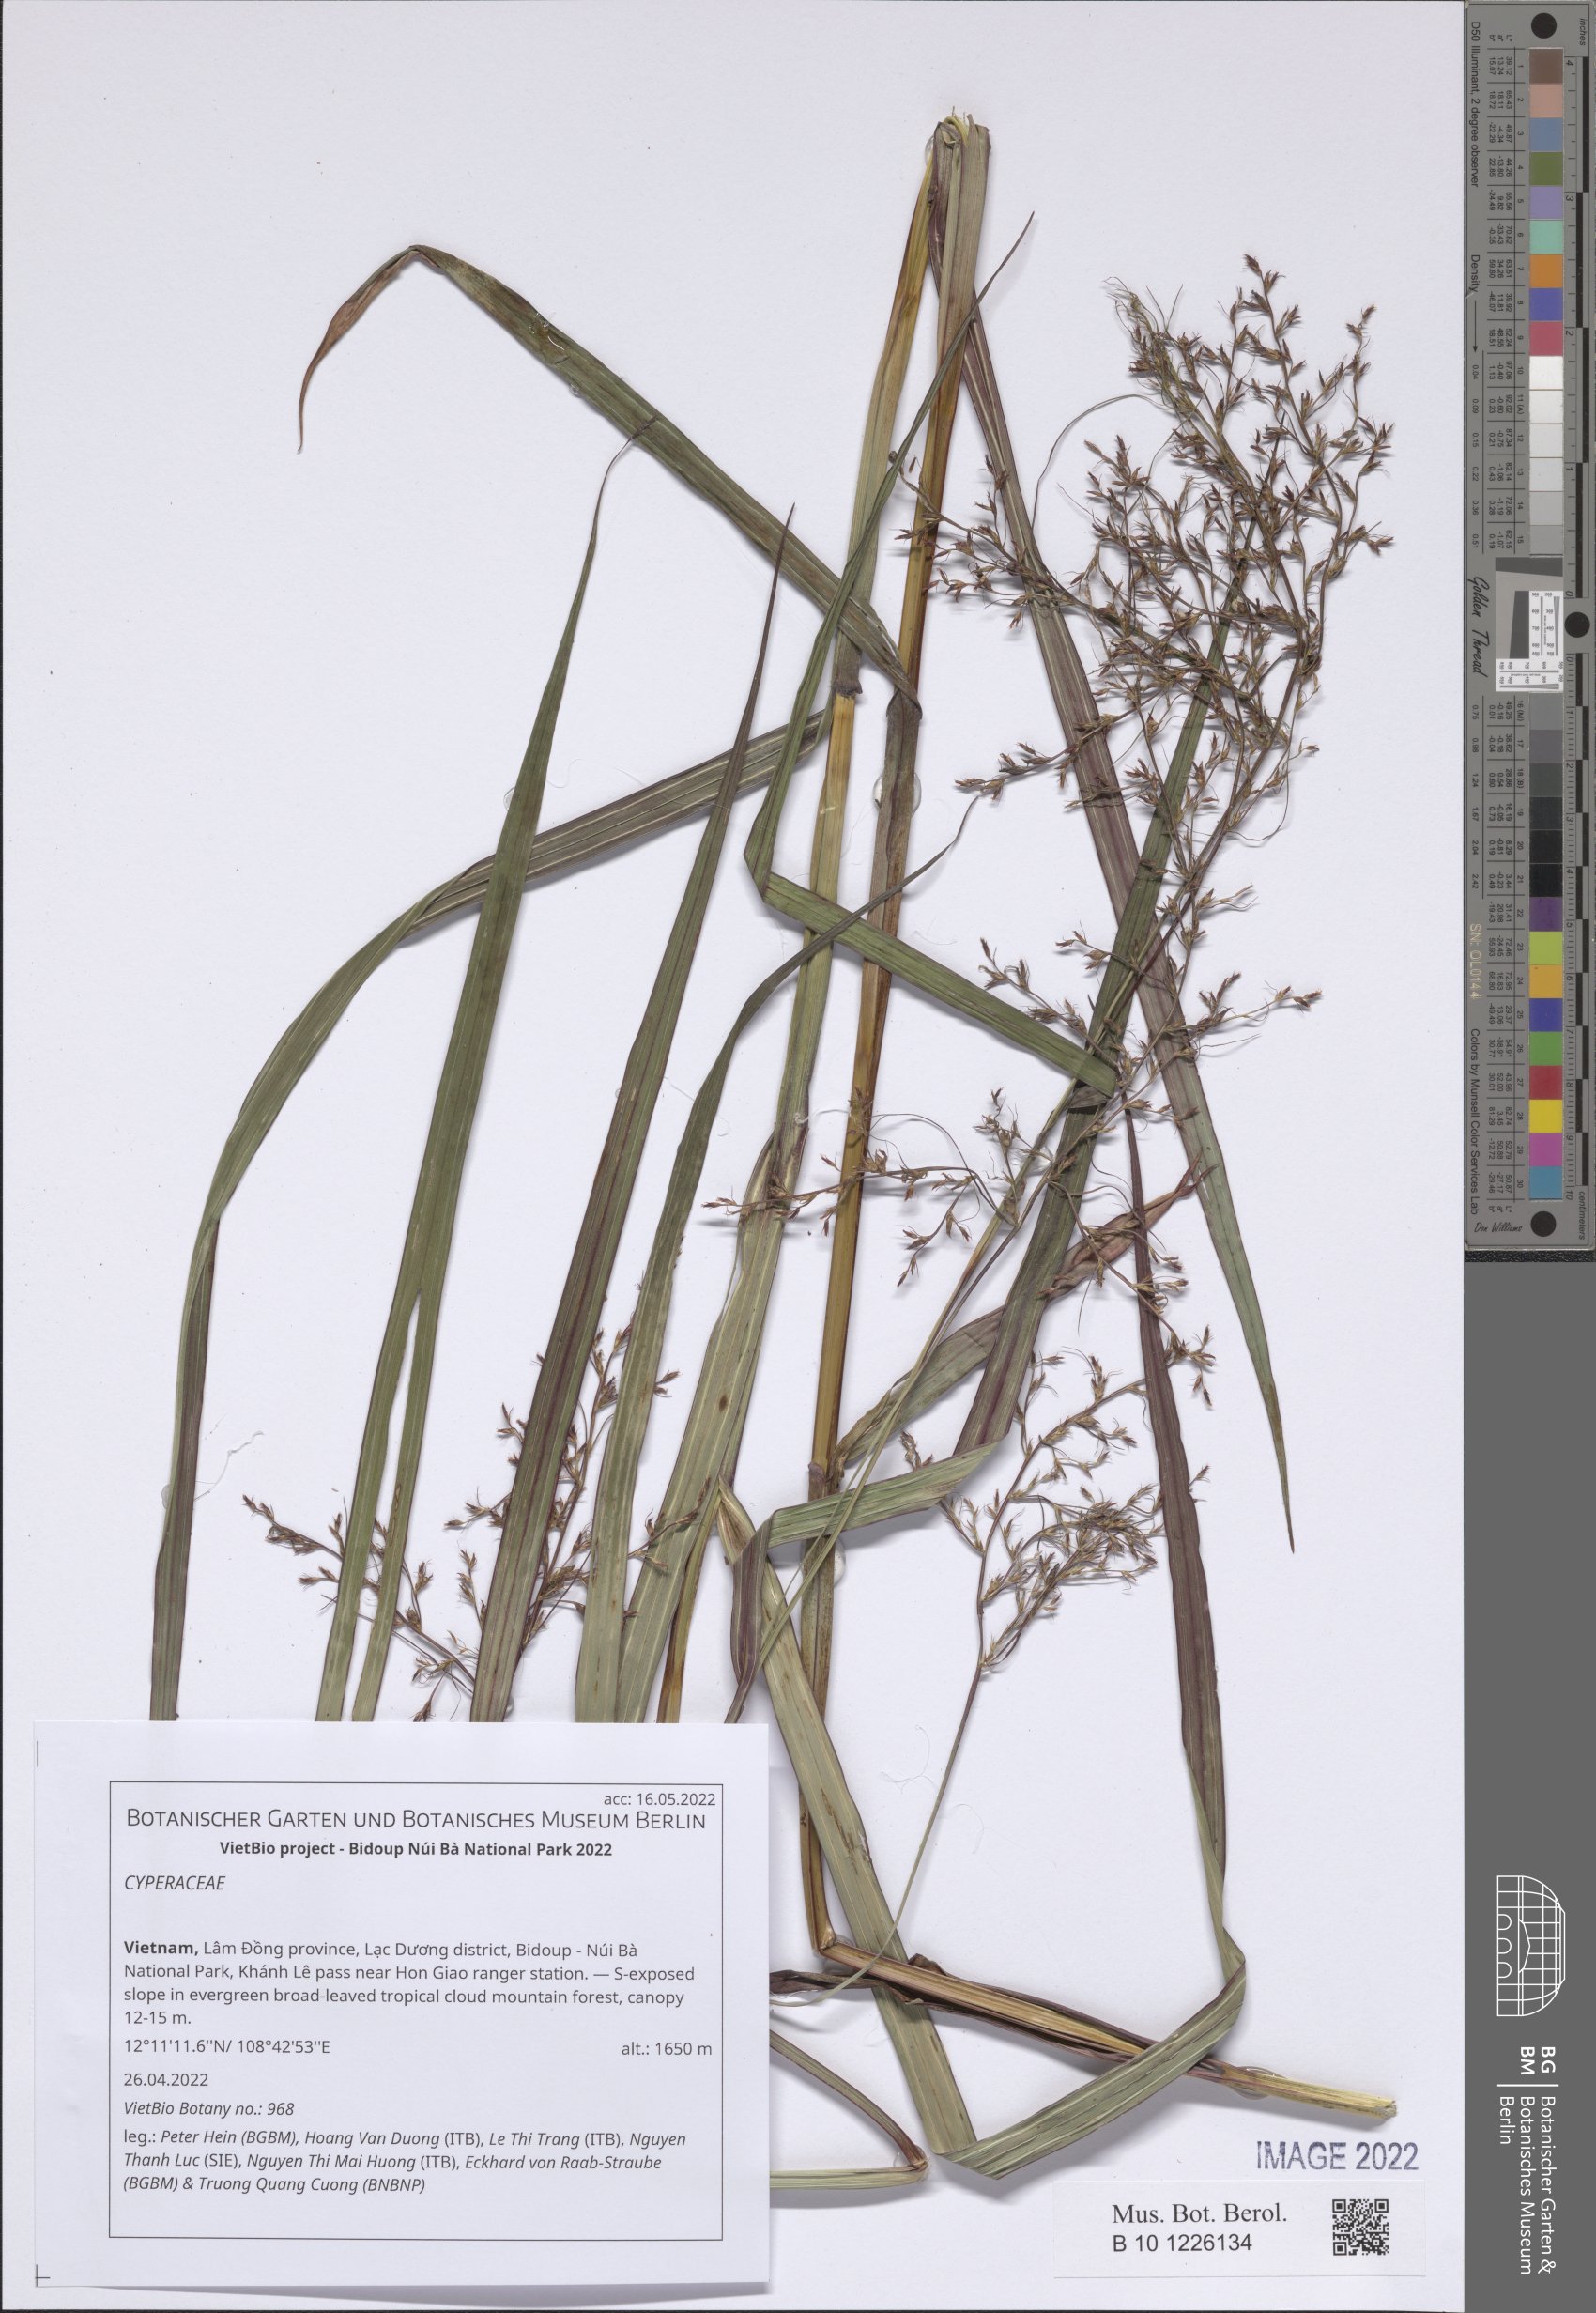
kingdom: Plantae
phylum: Tracheophyta
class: Liliopsida
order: Poales
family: Cyperaceae
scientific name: Cyperaceae
